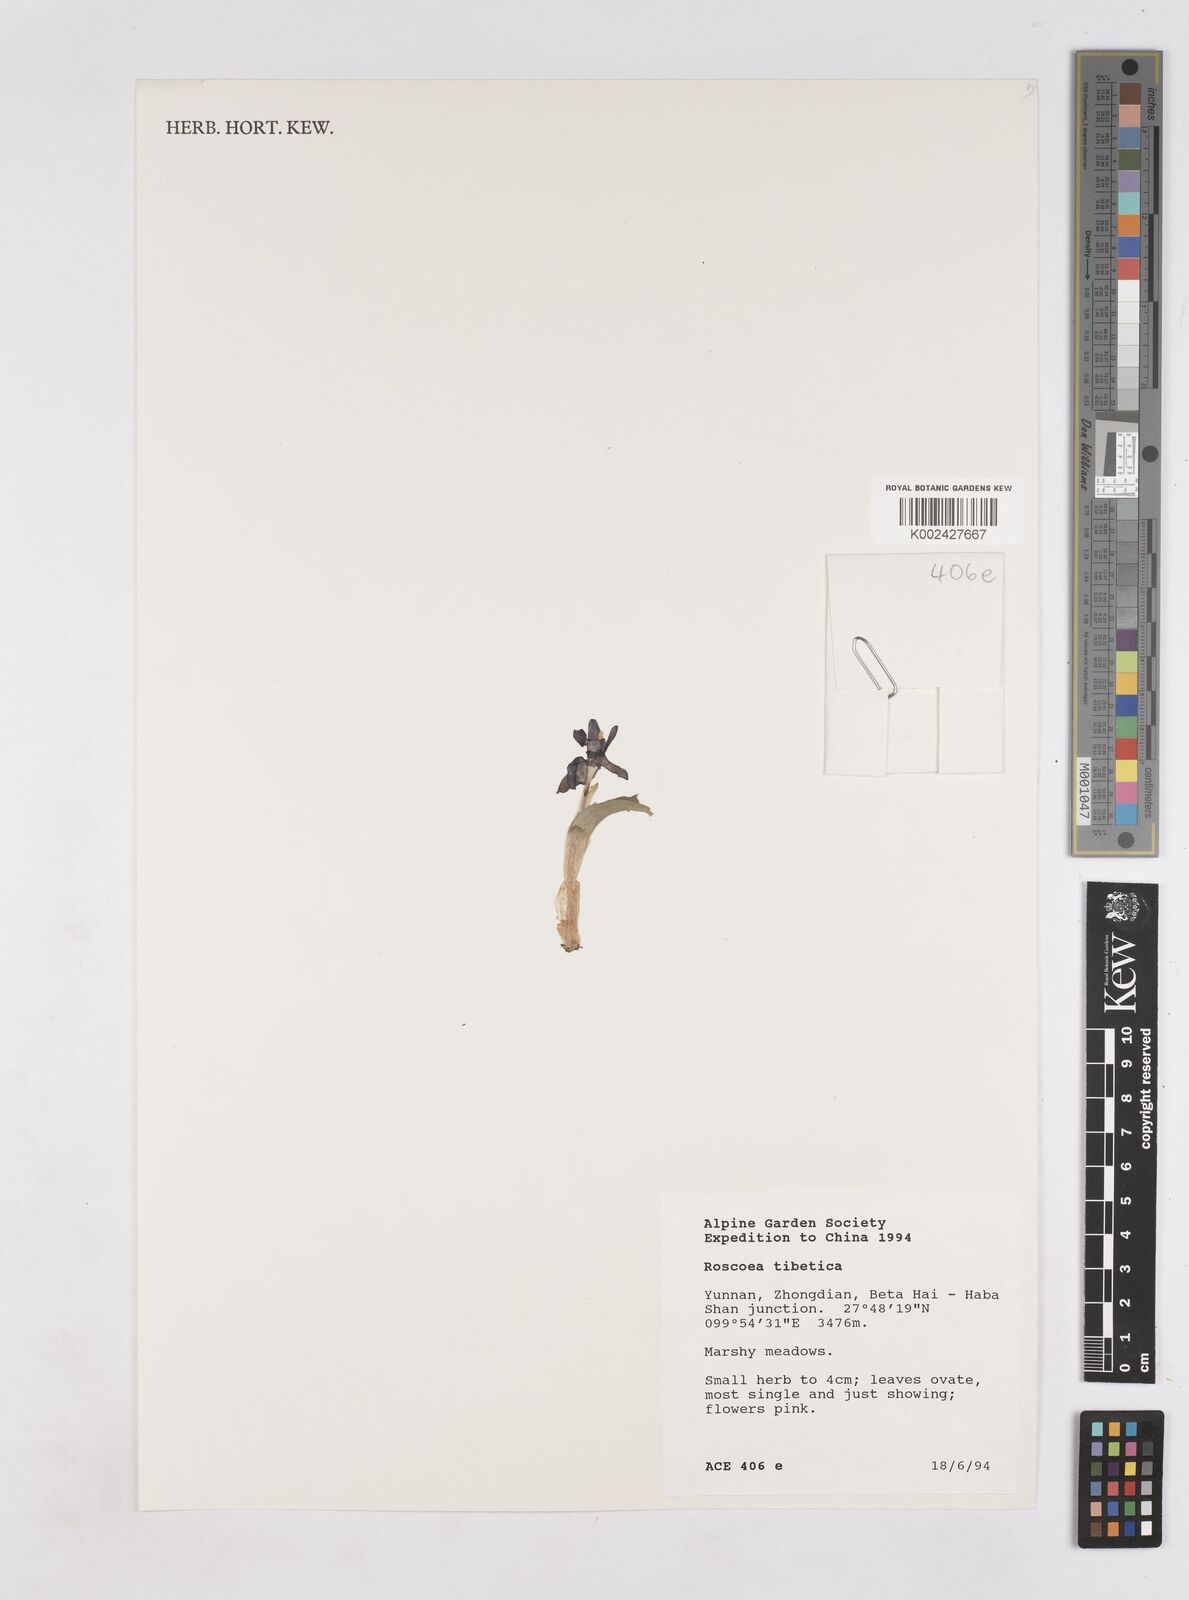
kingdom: Plantae
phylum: Tracheophyta
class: Liliopsida
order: Zingiberales
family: Zingiberaceae
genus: Roscoea
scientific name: Roscoea tibetica
